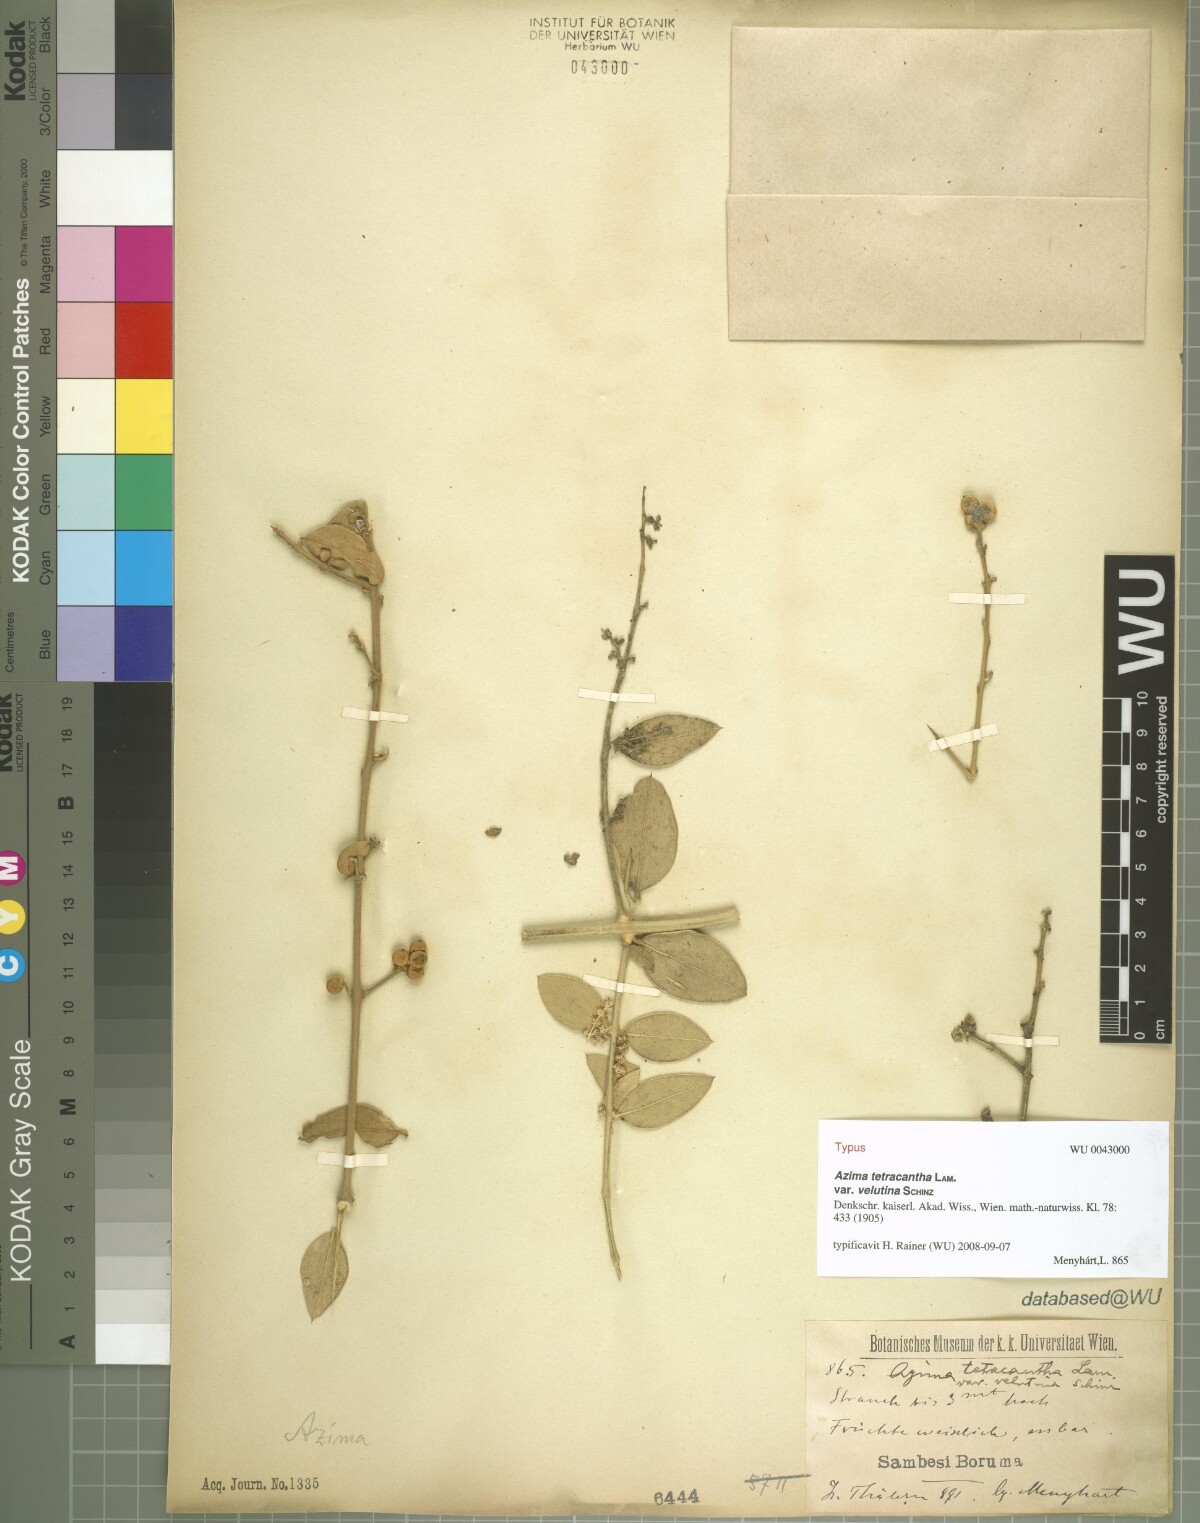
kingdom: Plantae
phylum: Tracheophyta
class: Magnoliopsida
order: Brassicales
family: Salvadoraceae
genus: Azima
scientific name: Azima tetracantha
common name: Needle bush
